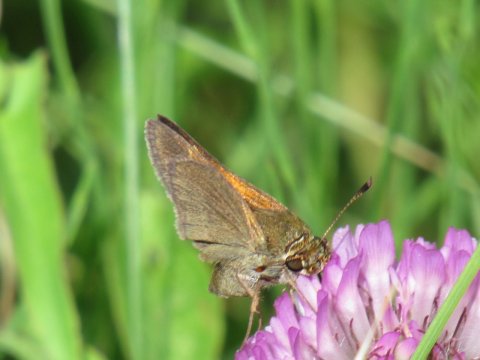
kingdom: Animalia
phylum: Arthropoda
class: Insecta
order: Lepidoptera
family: Hesperiidae
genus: Polites
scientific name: Polites themistocles
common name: Tawny-edged Skipper
